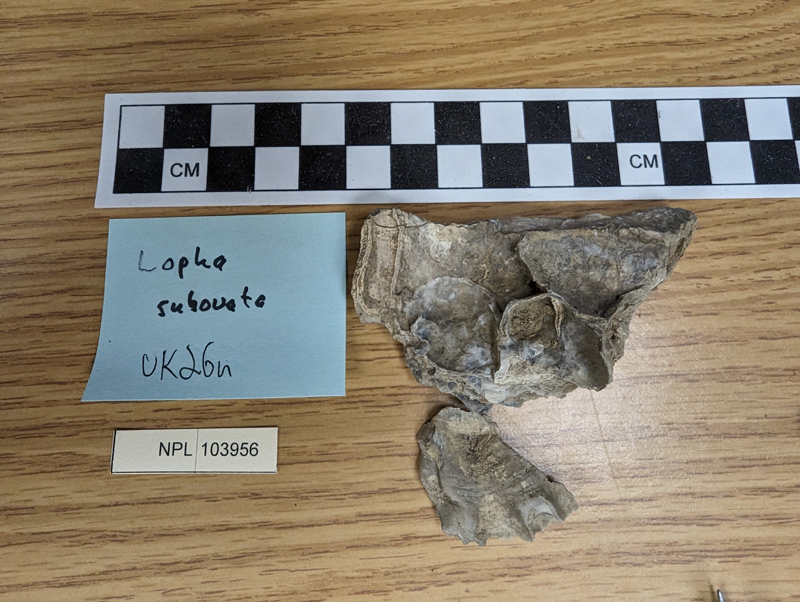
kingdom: Animalia
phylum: Mollusca
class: Bivalvia
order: Ostreida
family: Ostreidae
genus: Lopha
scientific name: Lopha
